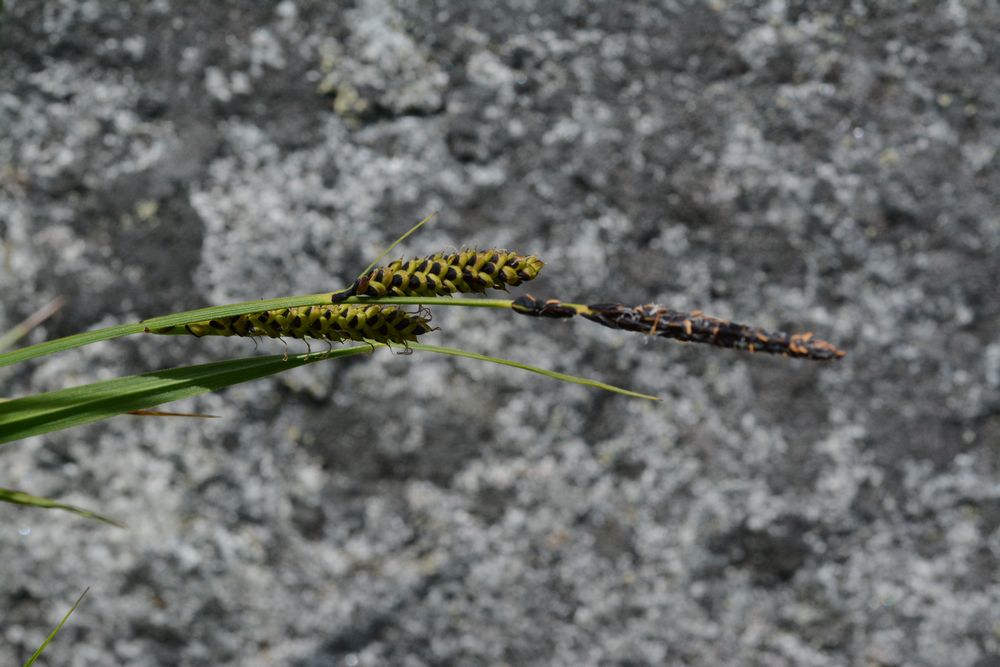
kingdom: Plantae
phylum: Tracheophyta
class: Liliopsida
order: Poales
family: Cyperaceae
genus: Carex
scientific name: Carex nigra
